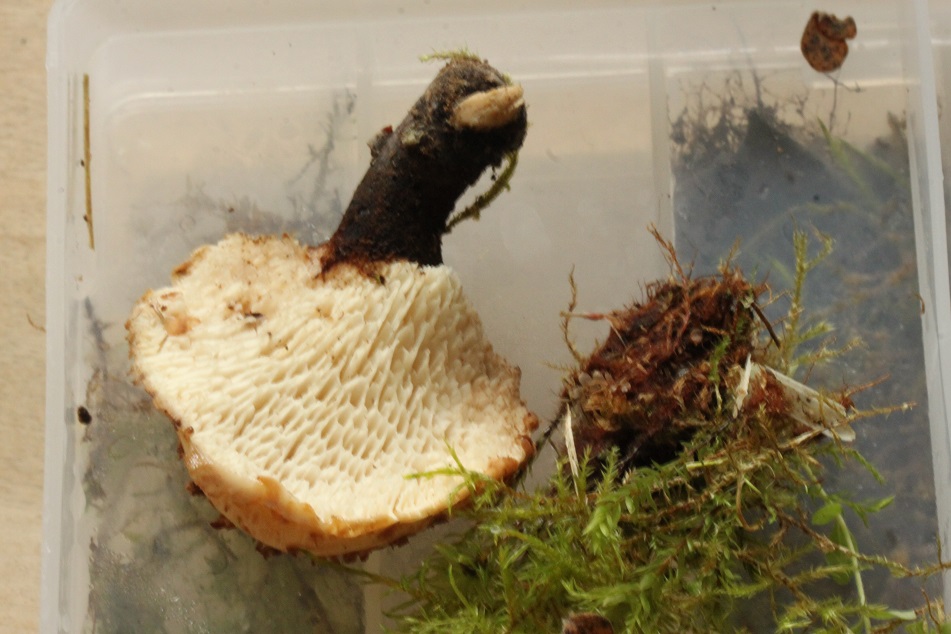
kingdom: Fungi
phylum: Basidiomycota
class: Agaricomycetes
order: Polyporales
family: Polyporaceae
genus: Cerioporus
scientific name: Cerioporus squamosus
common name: skællet stilkporesvamp
